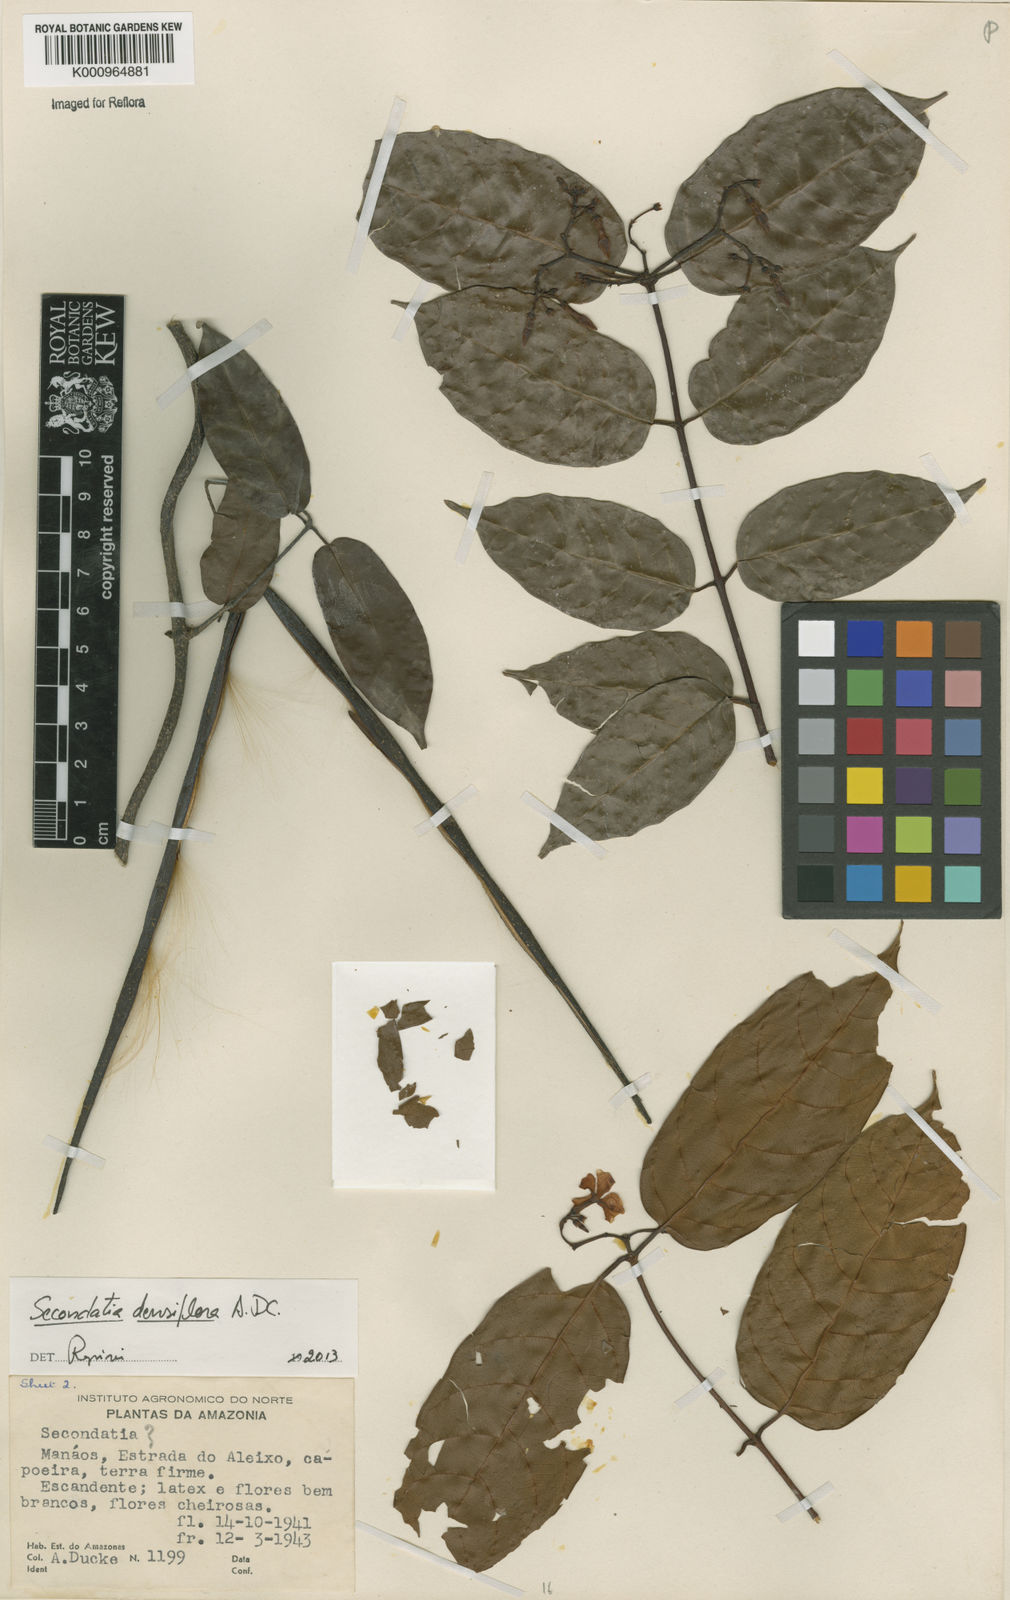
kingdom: Plantae
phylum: Tracheophyta
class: Magnoliopsida
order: Gentianales
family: Apocynaceae
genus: Secondatia
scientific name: Secondatia densiflora
